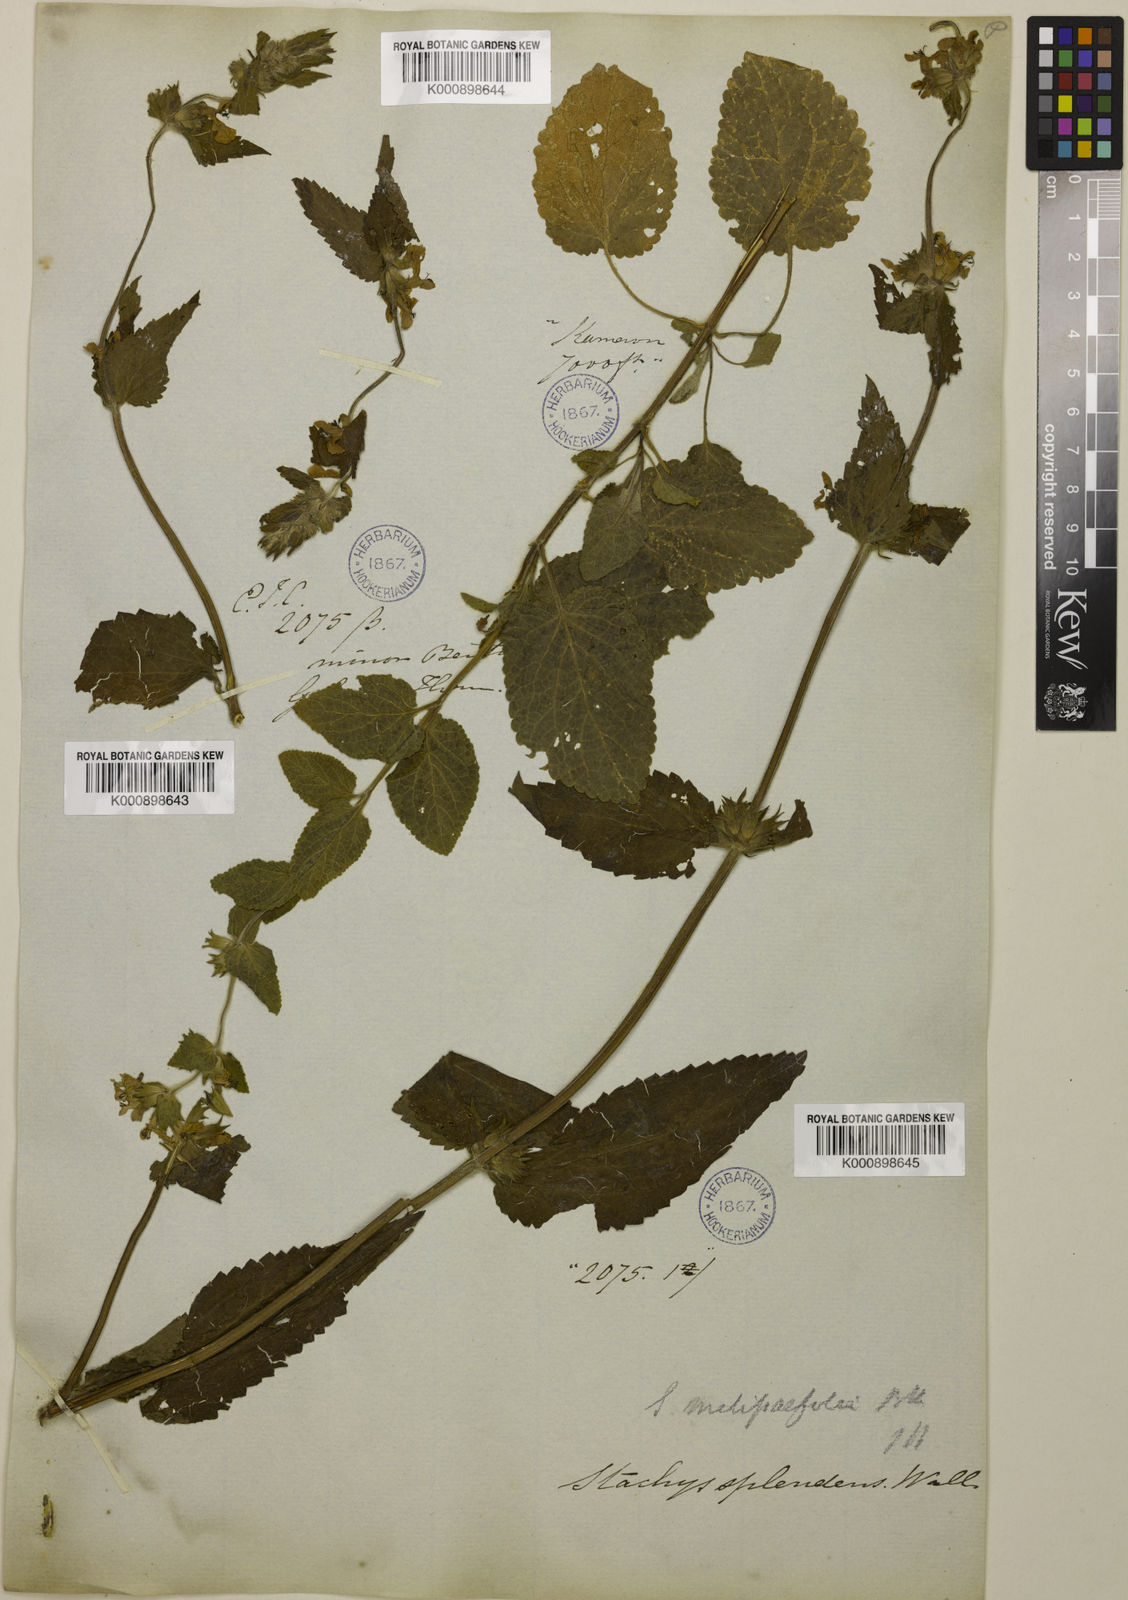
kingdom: Plantae
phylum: Tracheophyta
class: Magnoliopsida
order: Lamiales
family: Lamiaceae
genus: Stachys
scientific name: Stachys splendens
